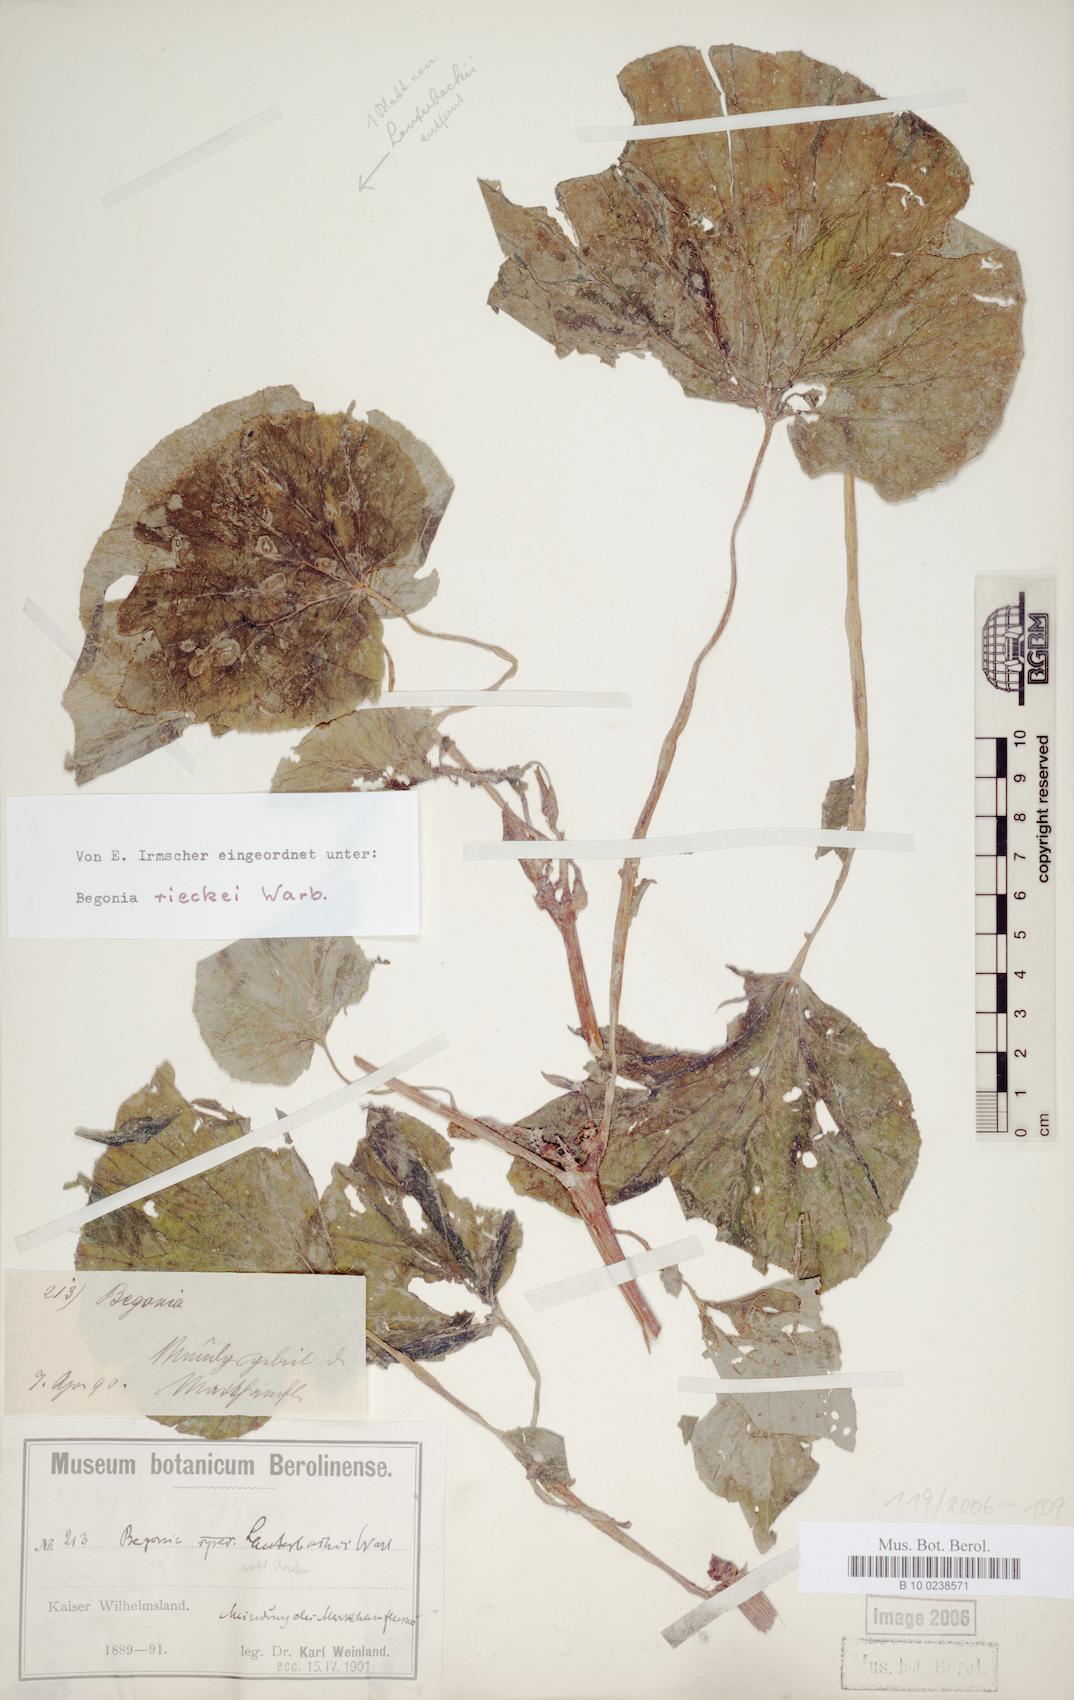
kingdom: Plantae
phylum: Tracheophyta
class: Magnoliopsida
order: Cucurbitales
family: Begoniaceae
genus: Begonia
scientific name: Begonia rieckei
